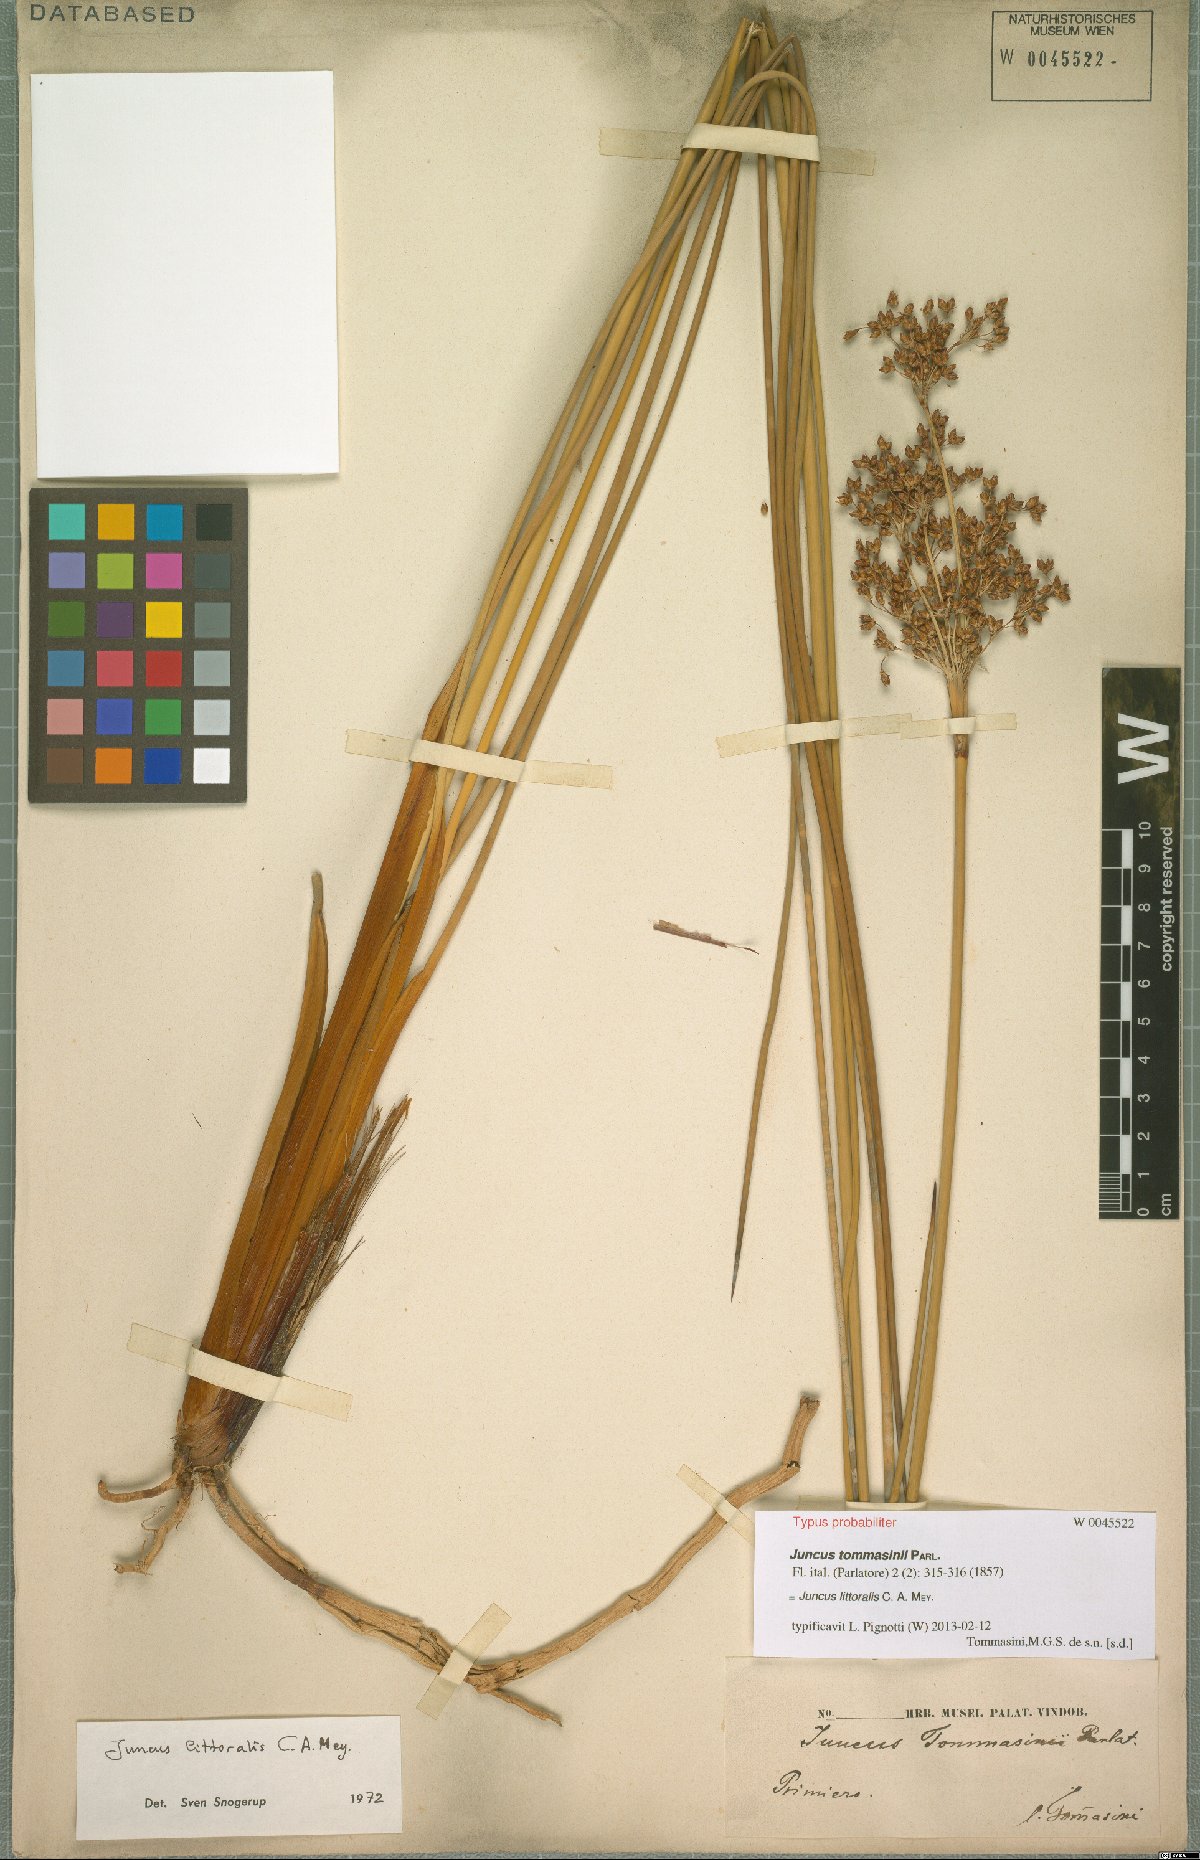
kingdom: Plantae
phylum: Tracheophyta
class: Liliopsida
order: Poales
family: Juncaceae
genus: Juncus
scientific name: Juncus littoralis
